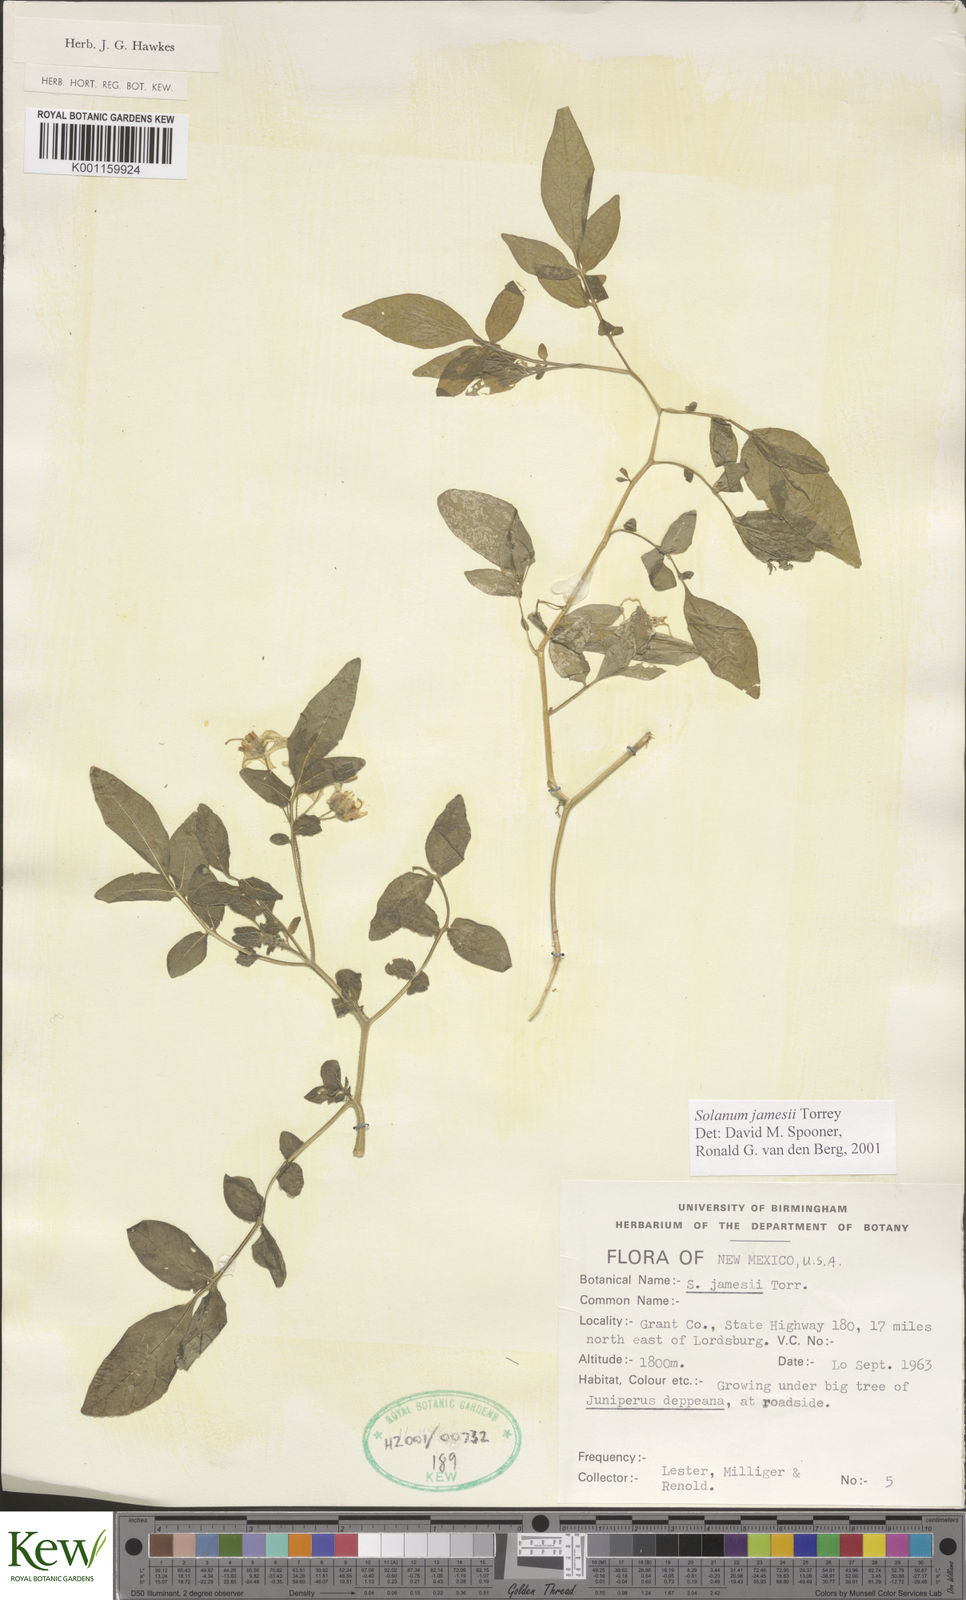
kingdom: Plantae
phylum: Tracheophyta
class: Magnoliopsida
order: Solanales
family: Solanaceae
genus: Solanum
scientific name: Solanum jamesii
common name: Wild potato
